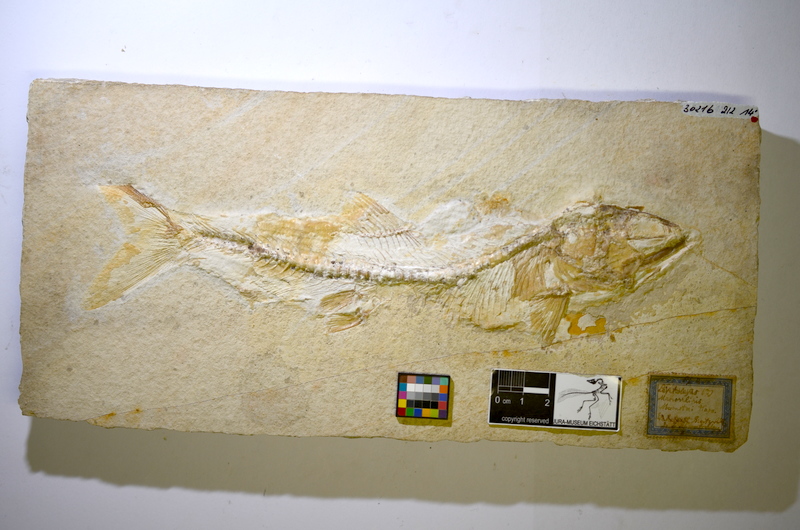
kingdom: Animalia
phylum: Chordata
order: Elopiformes
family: Anaethalionidae
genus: Anaethalion
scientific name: Anaethalion
